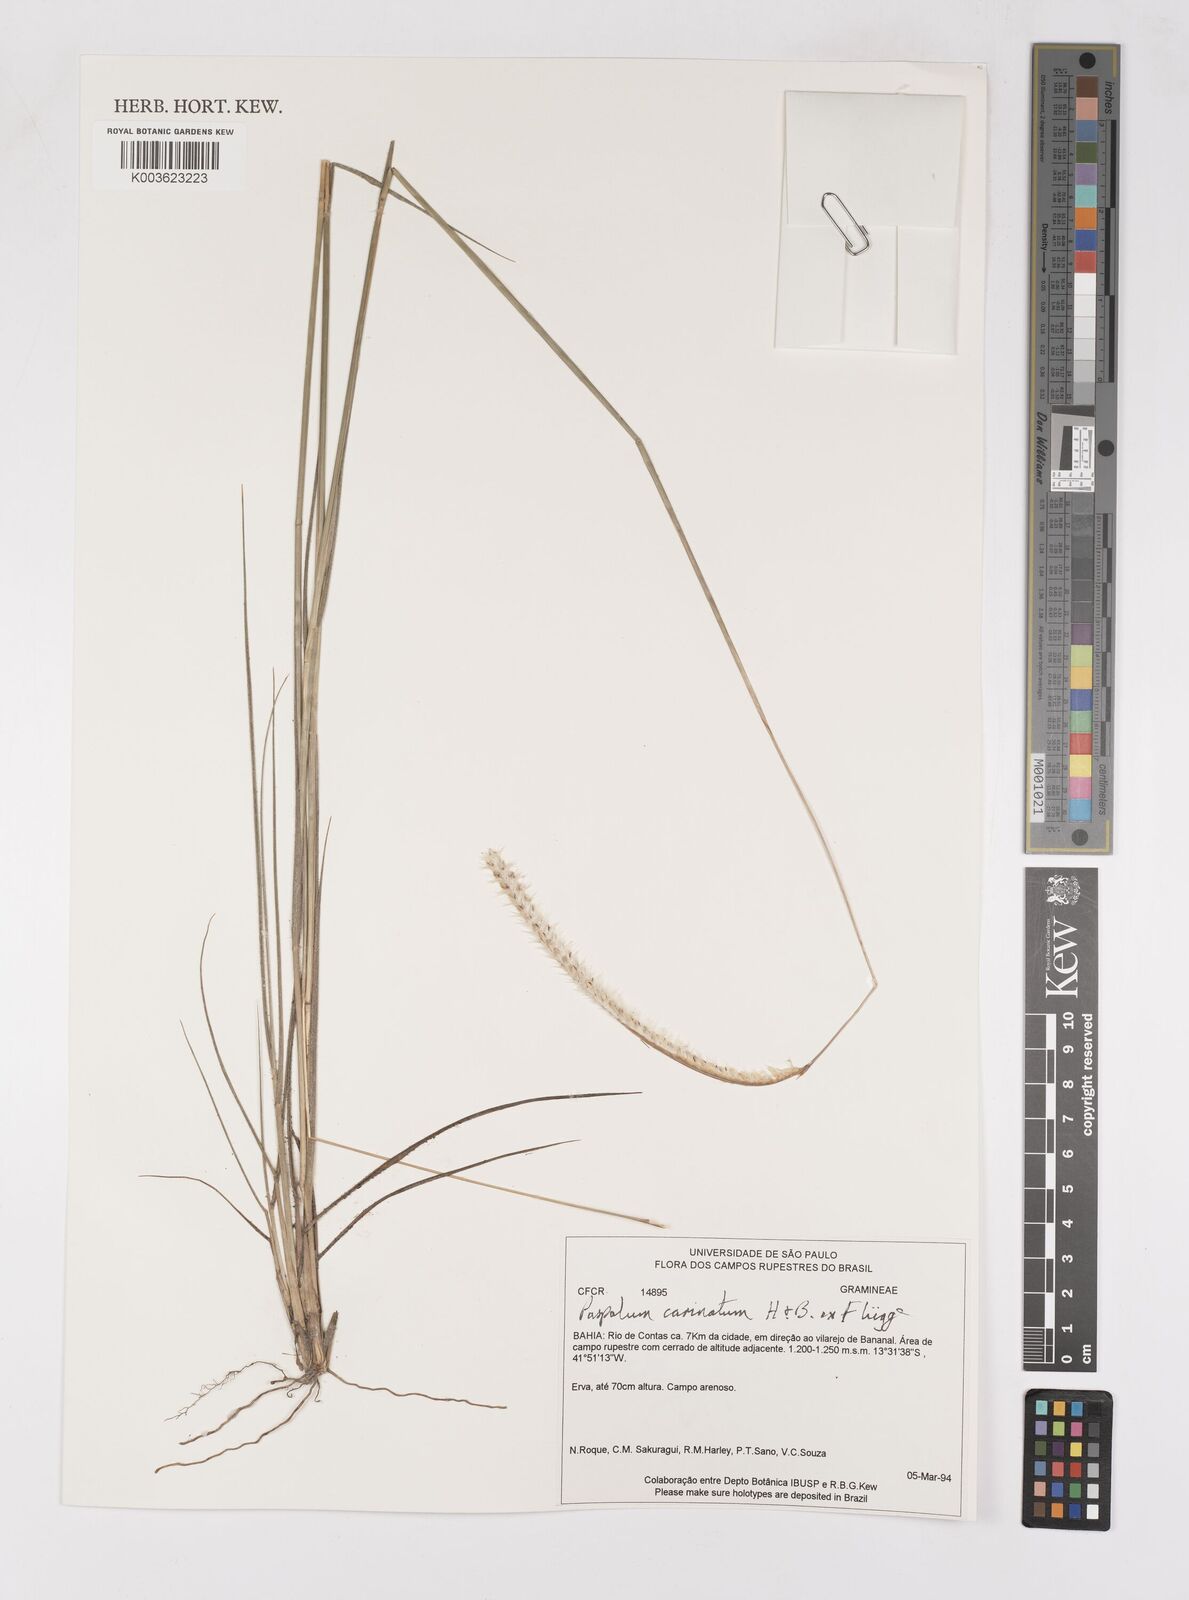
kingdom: Plantae
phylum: Tracheophyta
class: Liliopsida
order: Poales
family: Poaceae
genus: Paspalum
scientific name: Paspalum carinatum
